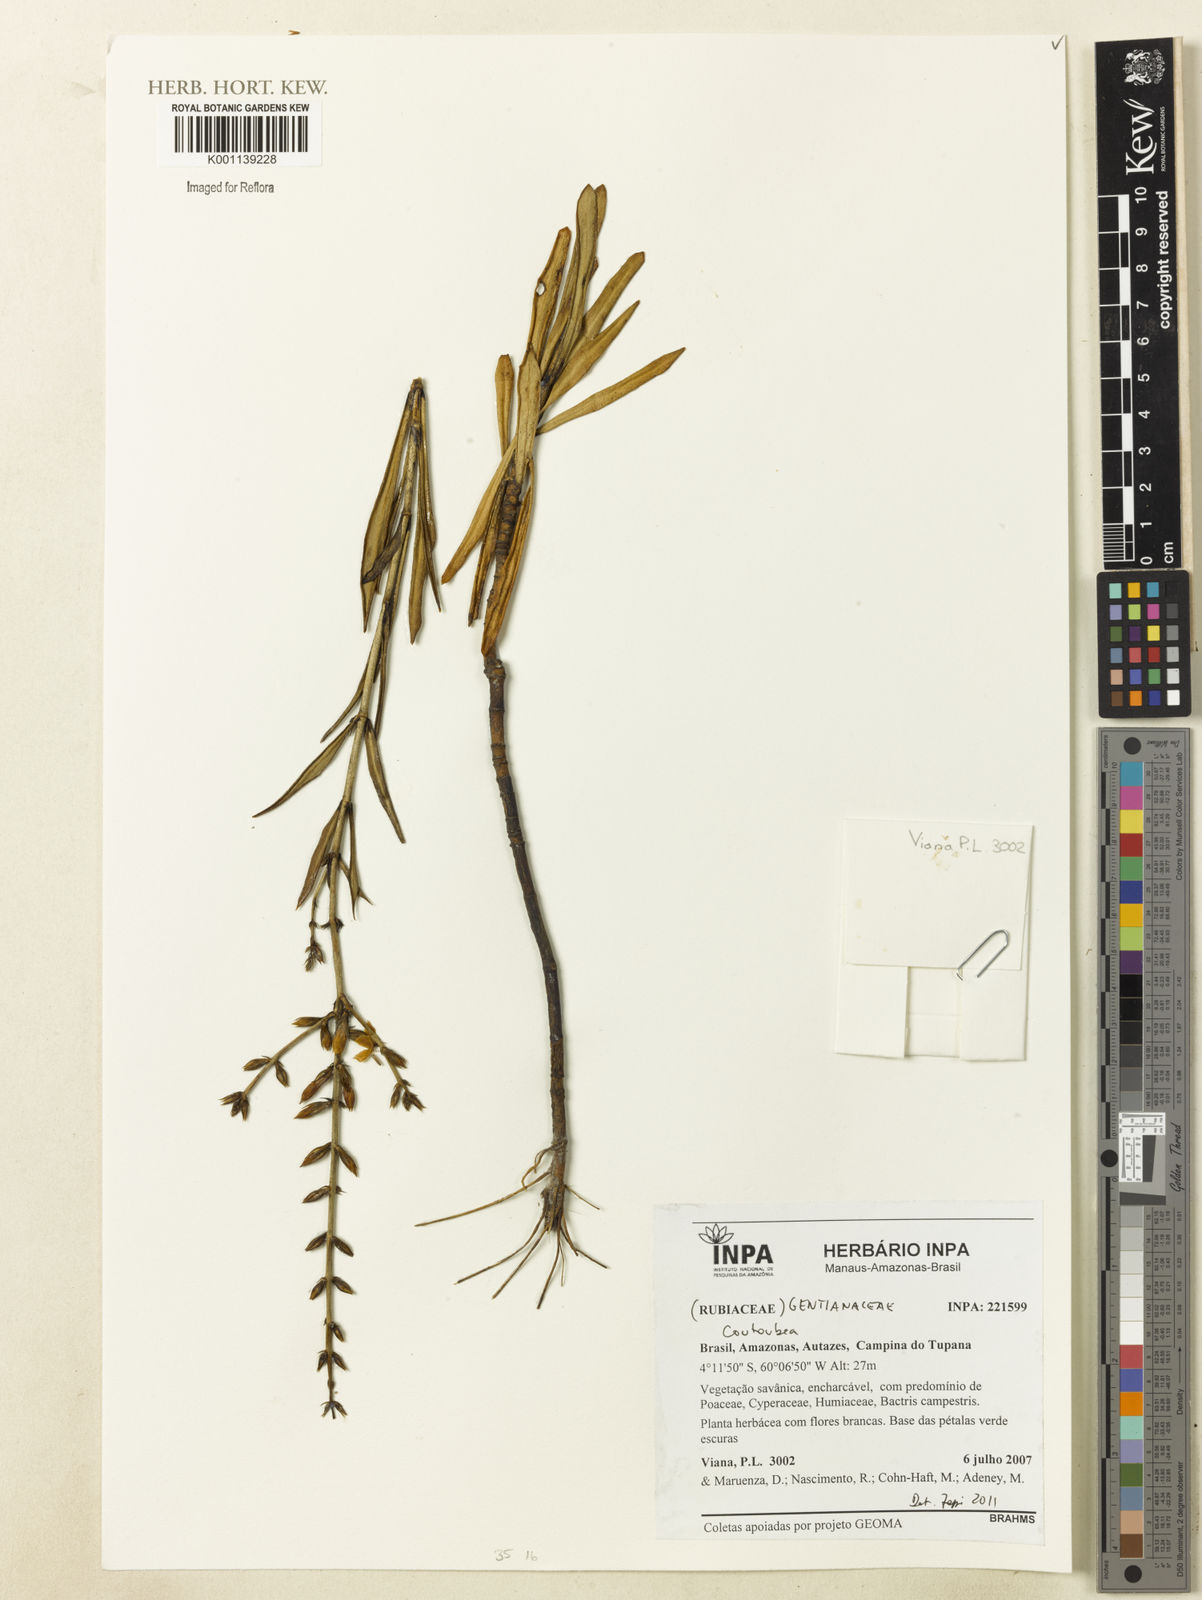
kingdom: Plantae
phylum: Tracheophyta
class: Magnoliopsida
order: Gentianales
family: Gentianaceae
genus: Coutoubea
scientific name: Coutoubea
